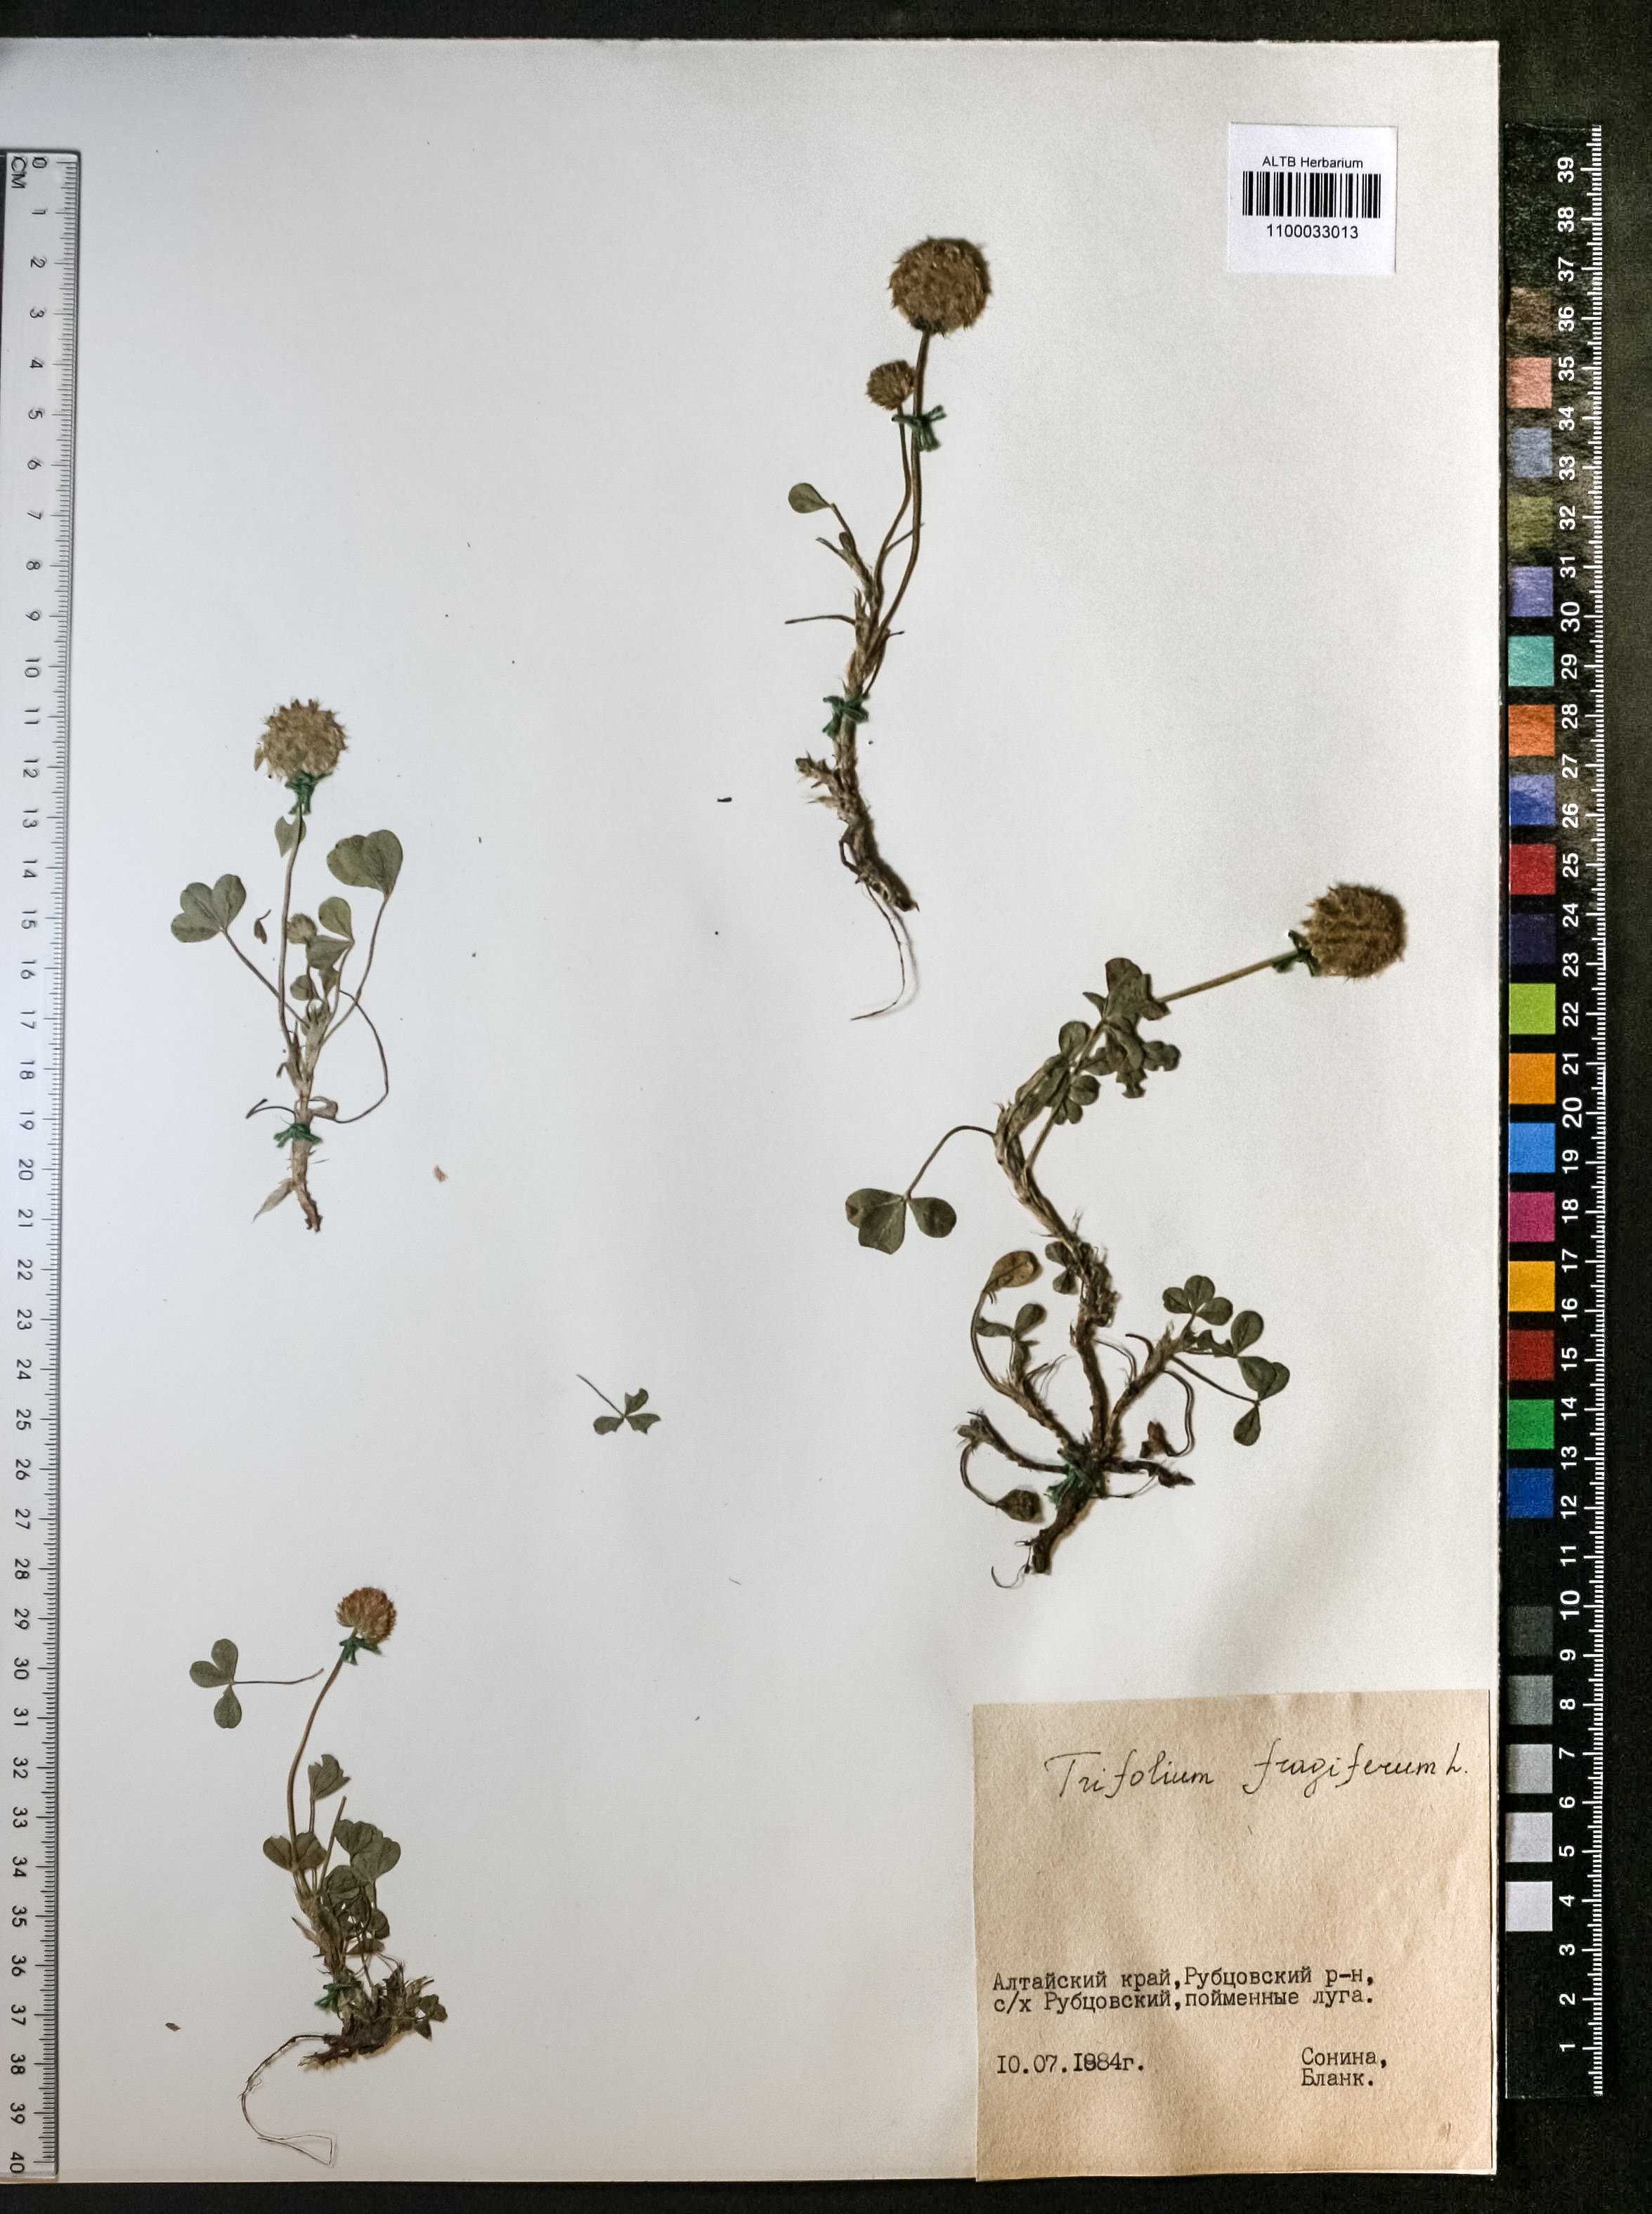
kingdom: Plantae
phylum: Tracheophyta
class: Magnoliopsida
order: Fabales
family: Fabaceae
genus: Trifolium
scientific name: Trifolium fragiferum
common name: Strawberry clover
